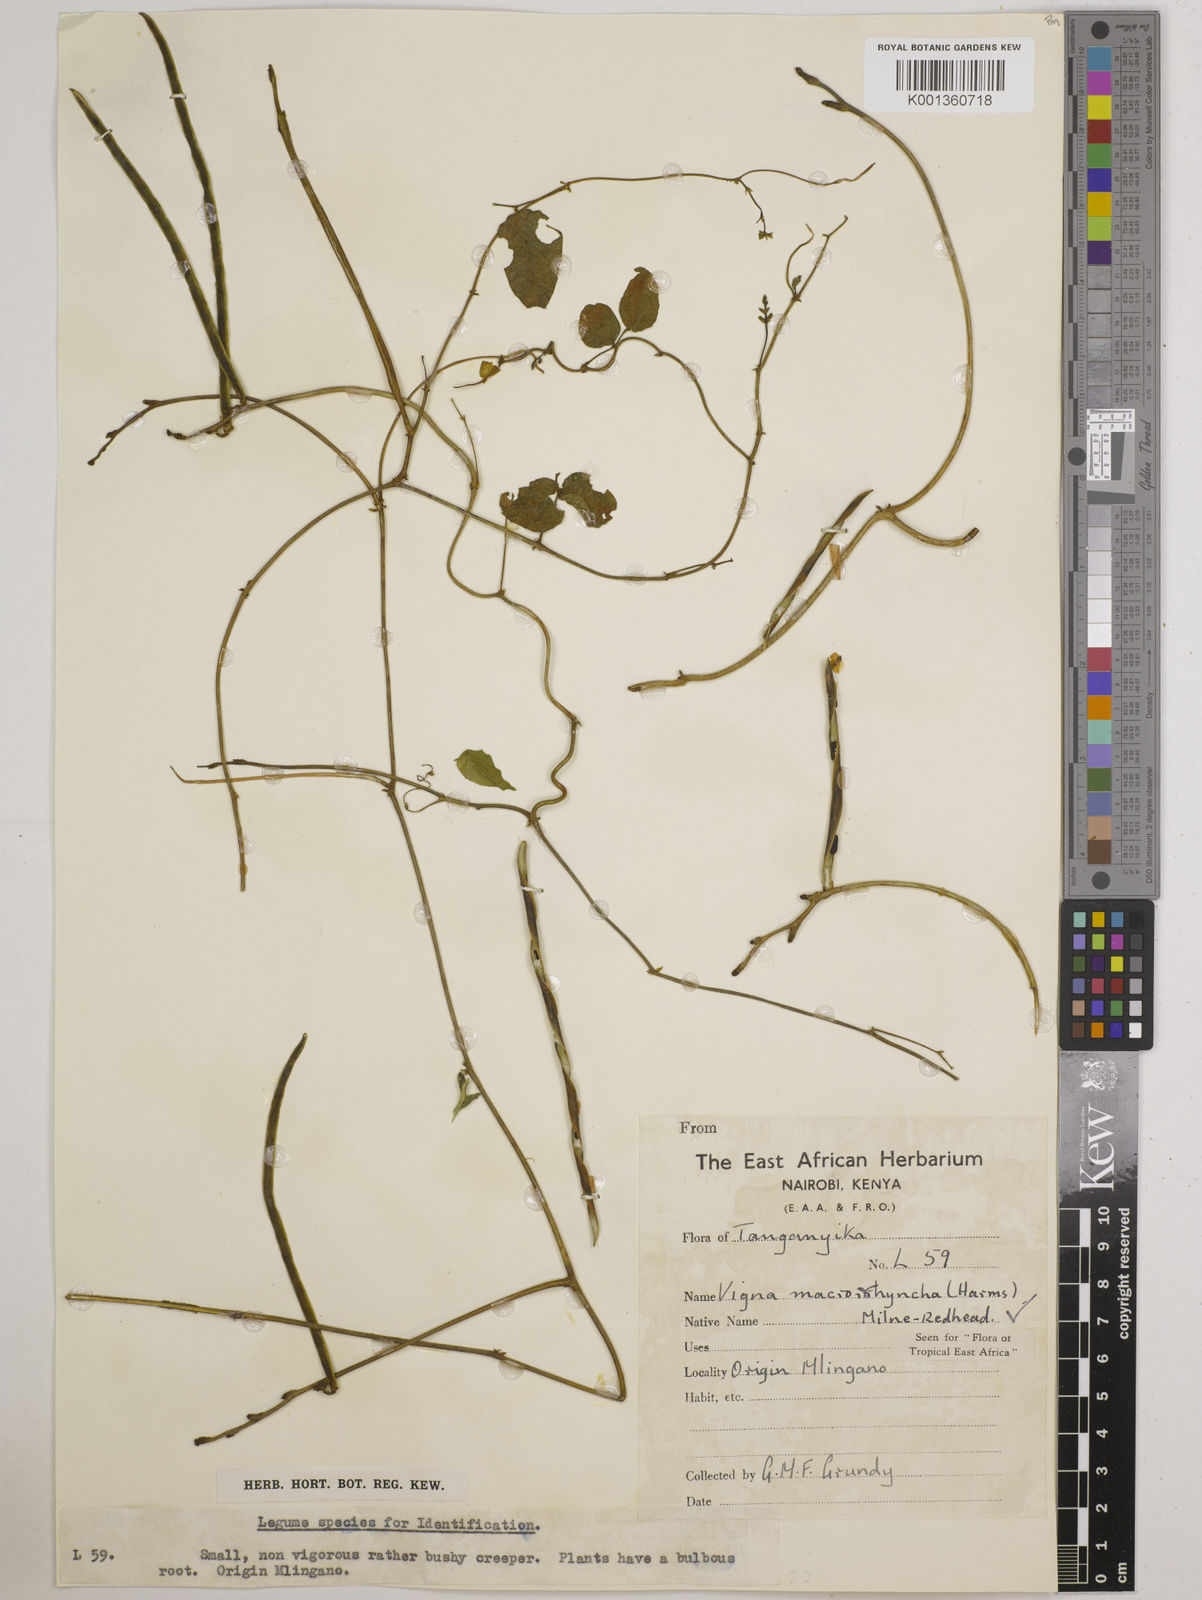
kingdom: Plantae
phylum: Tracheophyta
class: Magnoliopsida
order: Fabales
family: Fabaceae
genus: Wajira
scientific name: Wajira grahamiana
